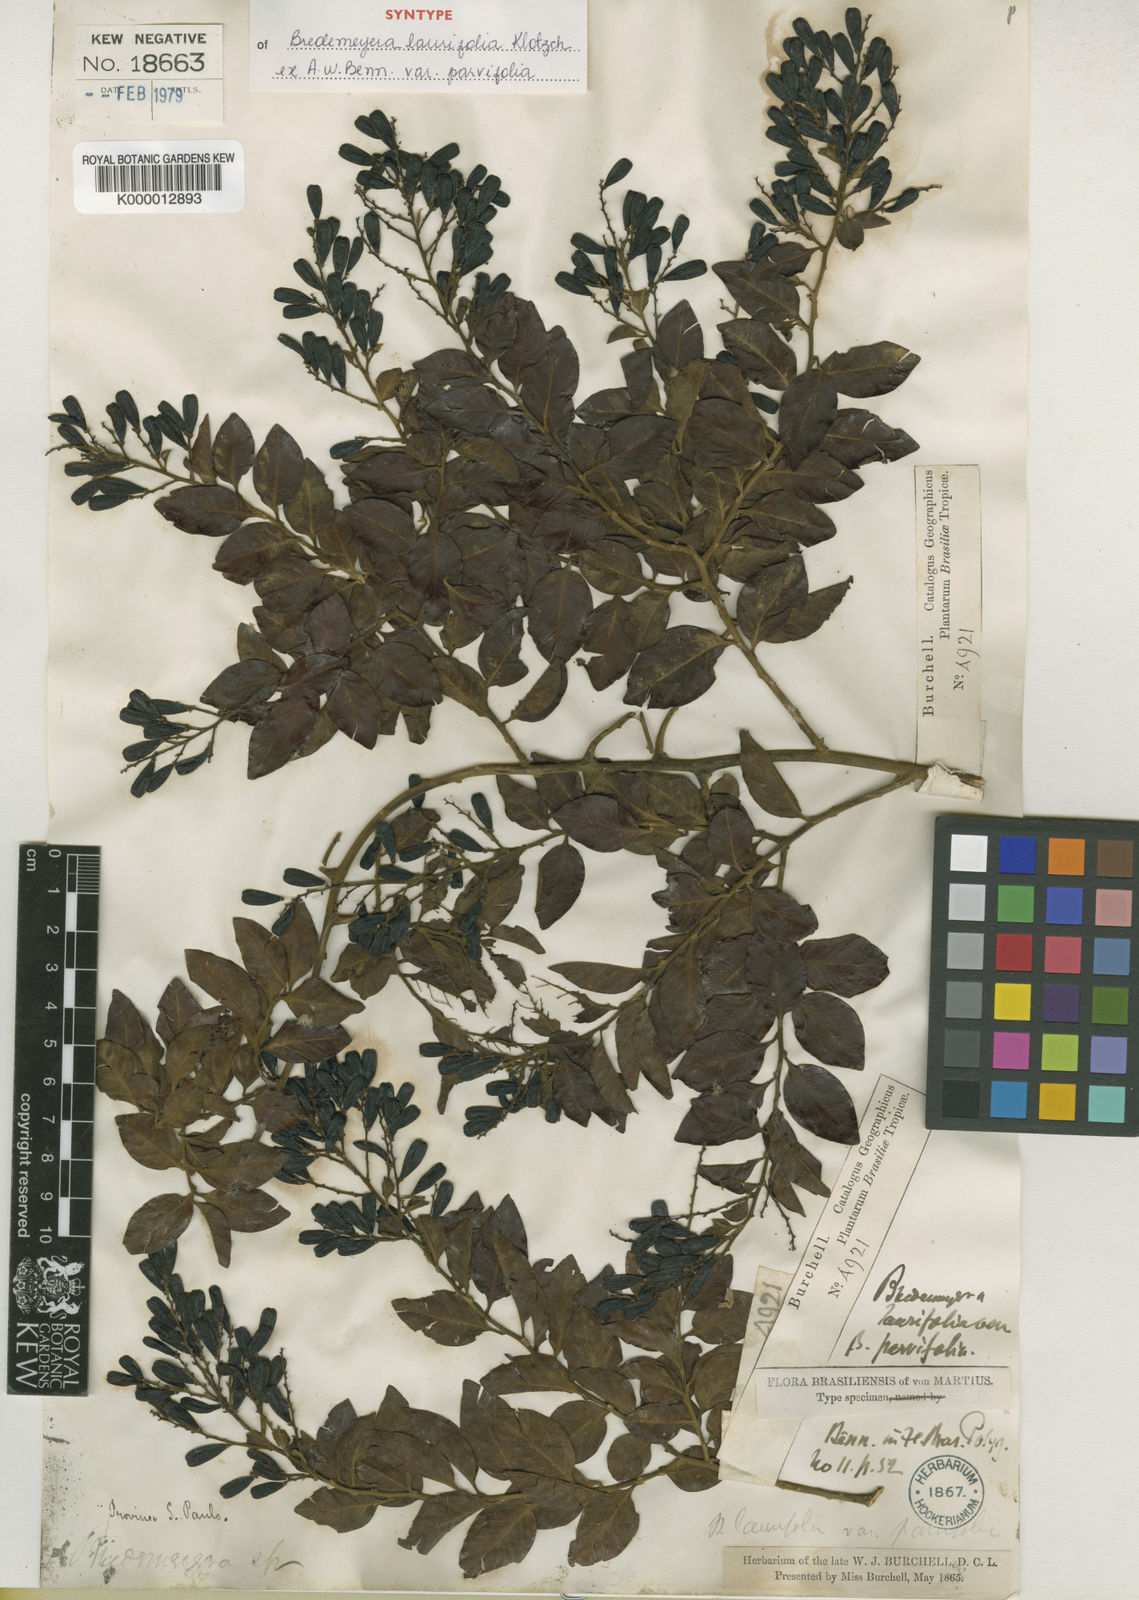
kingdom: Plantae
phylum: Tracheophyta
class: Magnoliopsida
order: Fabales
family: Polygalaceae
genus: Bredemeyera
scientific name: Bredemeyera laurifolia
